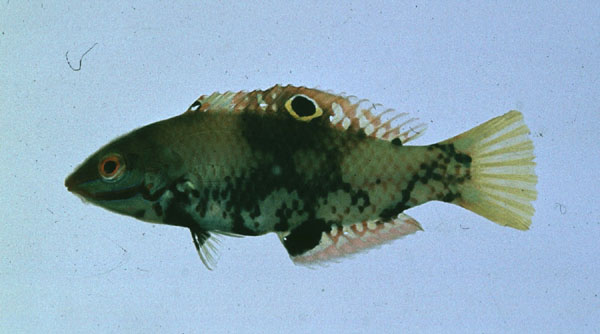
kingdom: Animalia
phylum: Chordata
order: Perciformes
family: Labridae
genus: Halichoeres
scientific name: Halichoeres hortulanus
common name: Checkerboard wrasse
